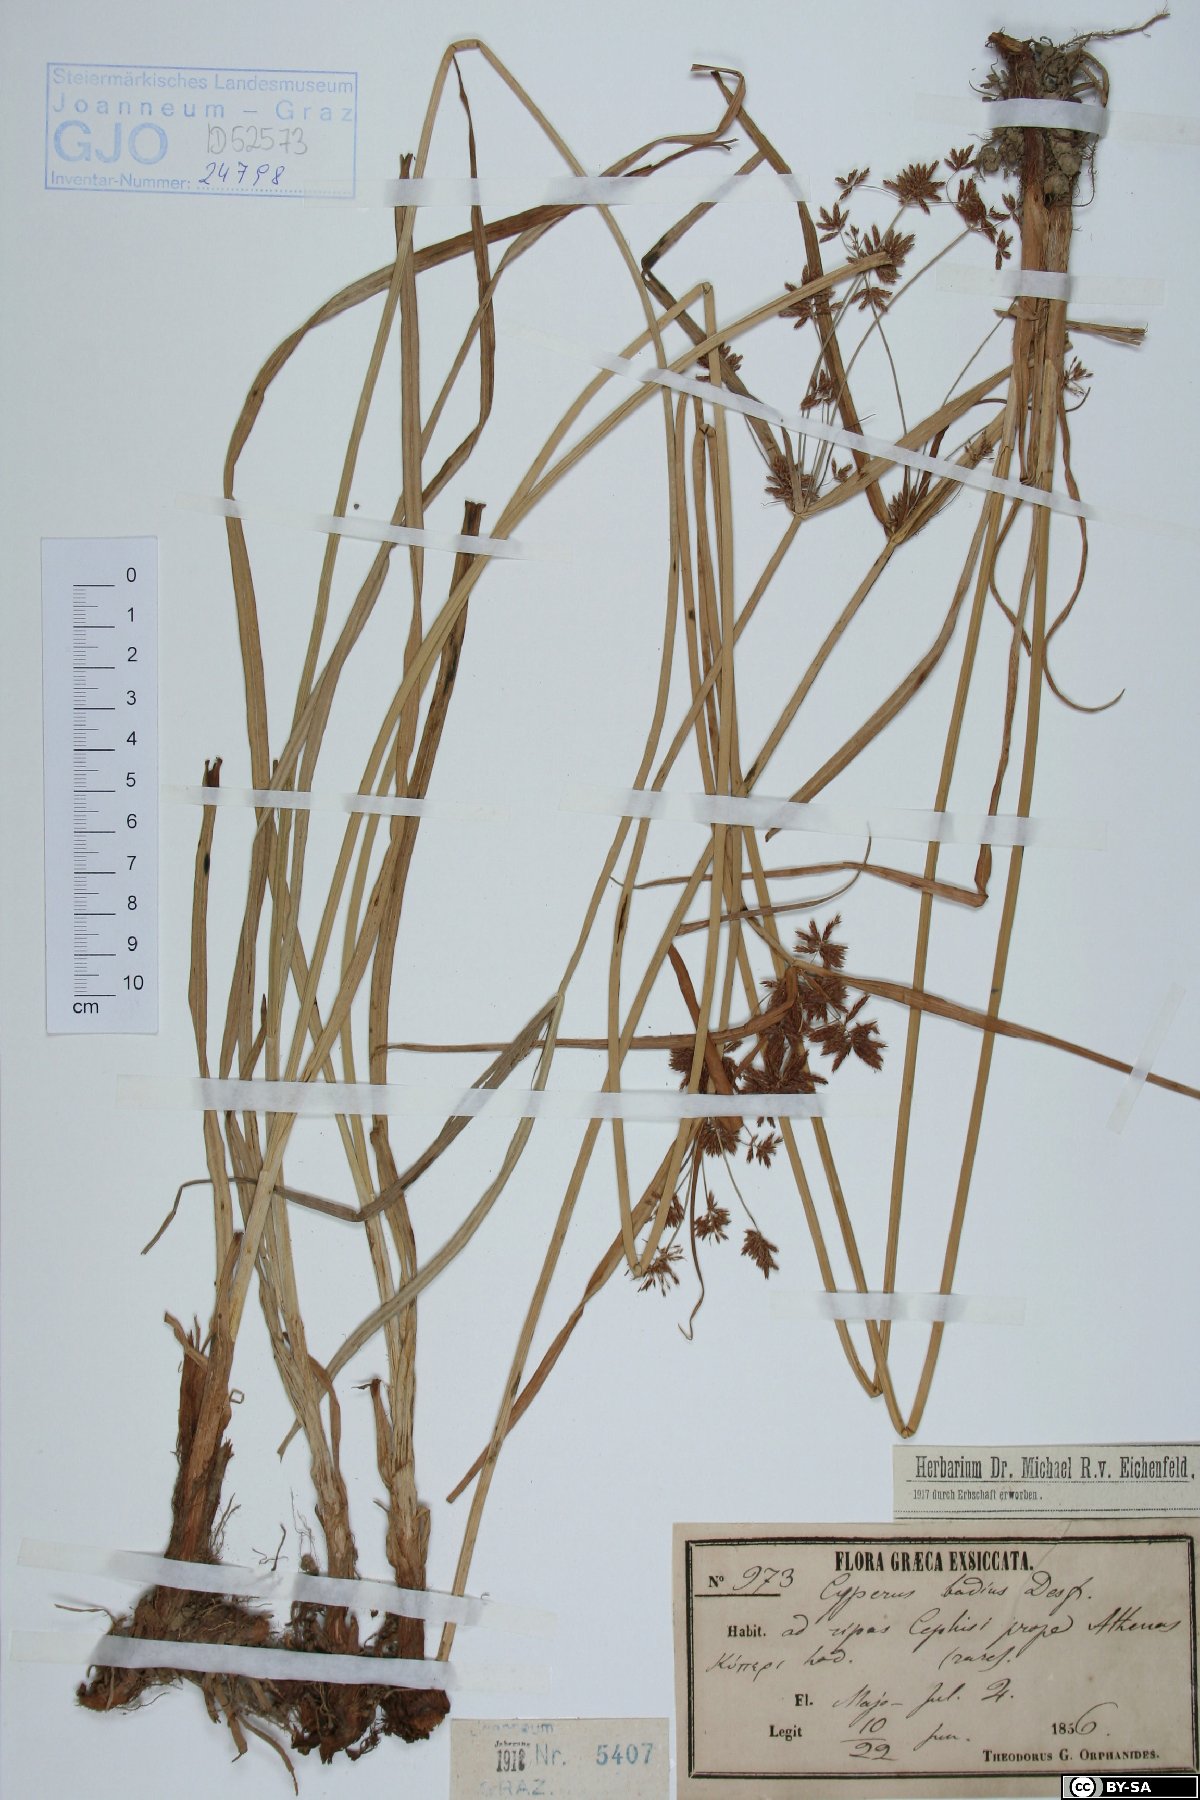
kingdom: Plantae
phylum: Tracheophyta
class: Liliopsida
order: Poales
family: Cyperaceae
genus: Cyperus
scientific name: Cyperus longus
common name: Galingale
